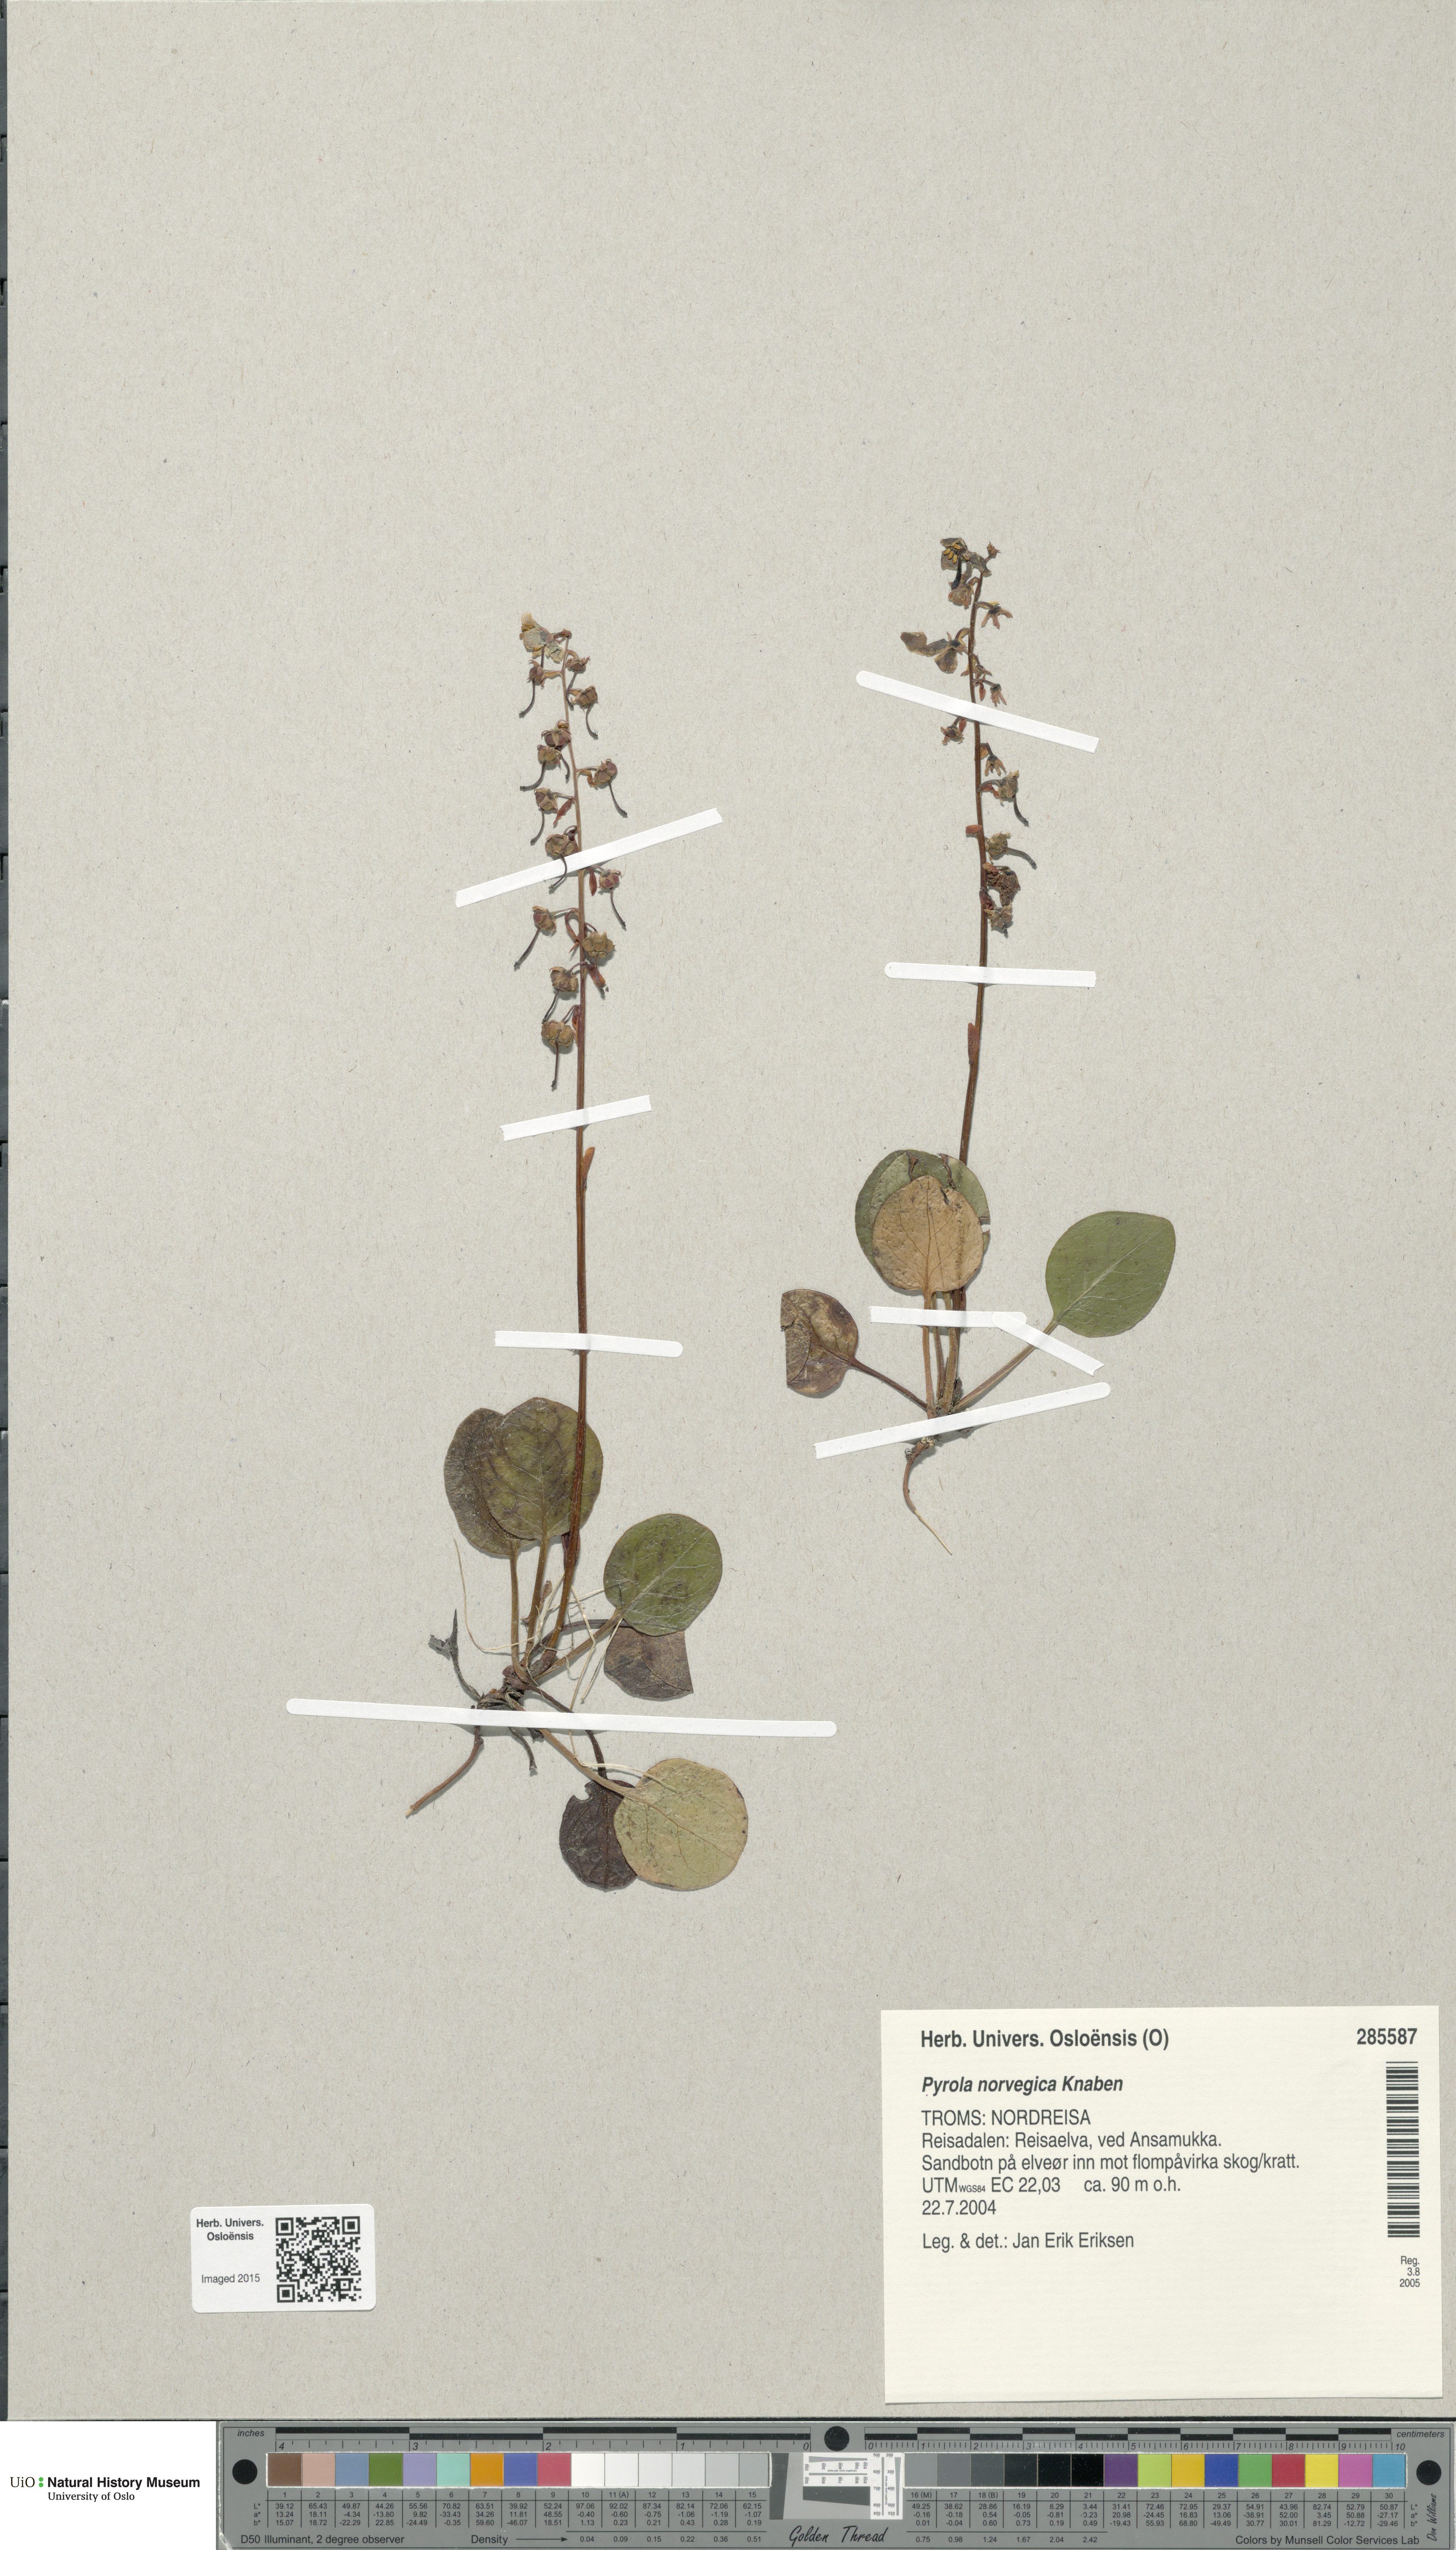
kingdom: Plantae
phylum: Tracheophyta
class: Magnoliopsida
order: Ericales
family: Ericaceae
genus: Pyrola
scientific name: Pyrola rotundifolia
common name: Round-leaved wintergreen
